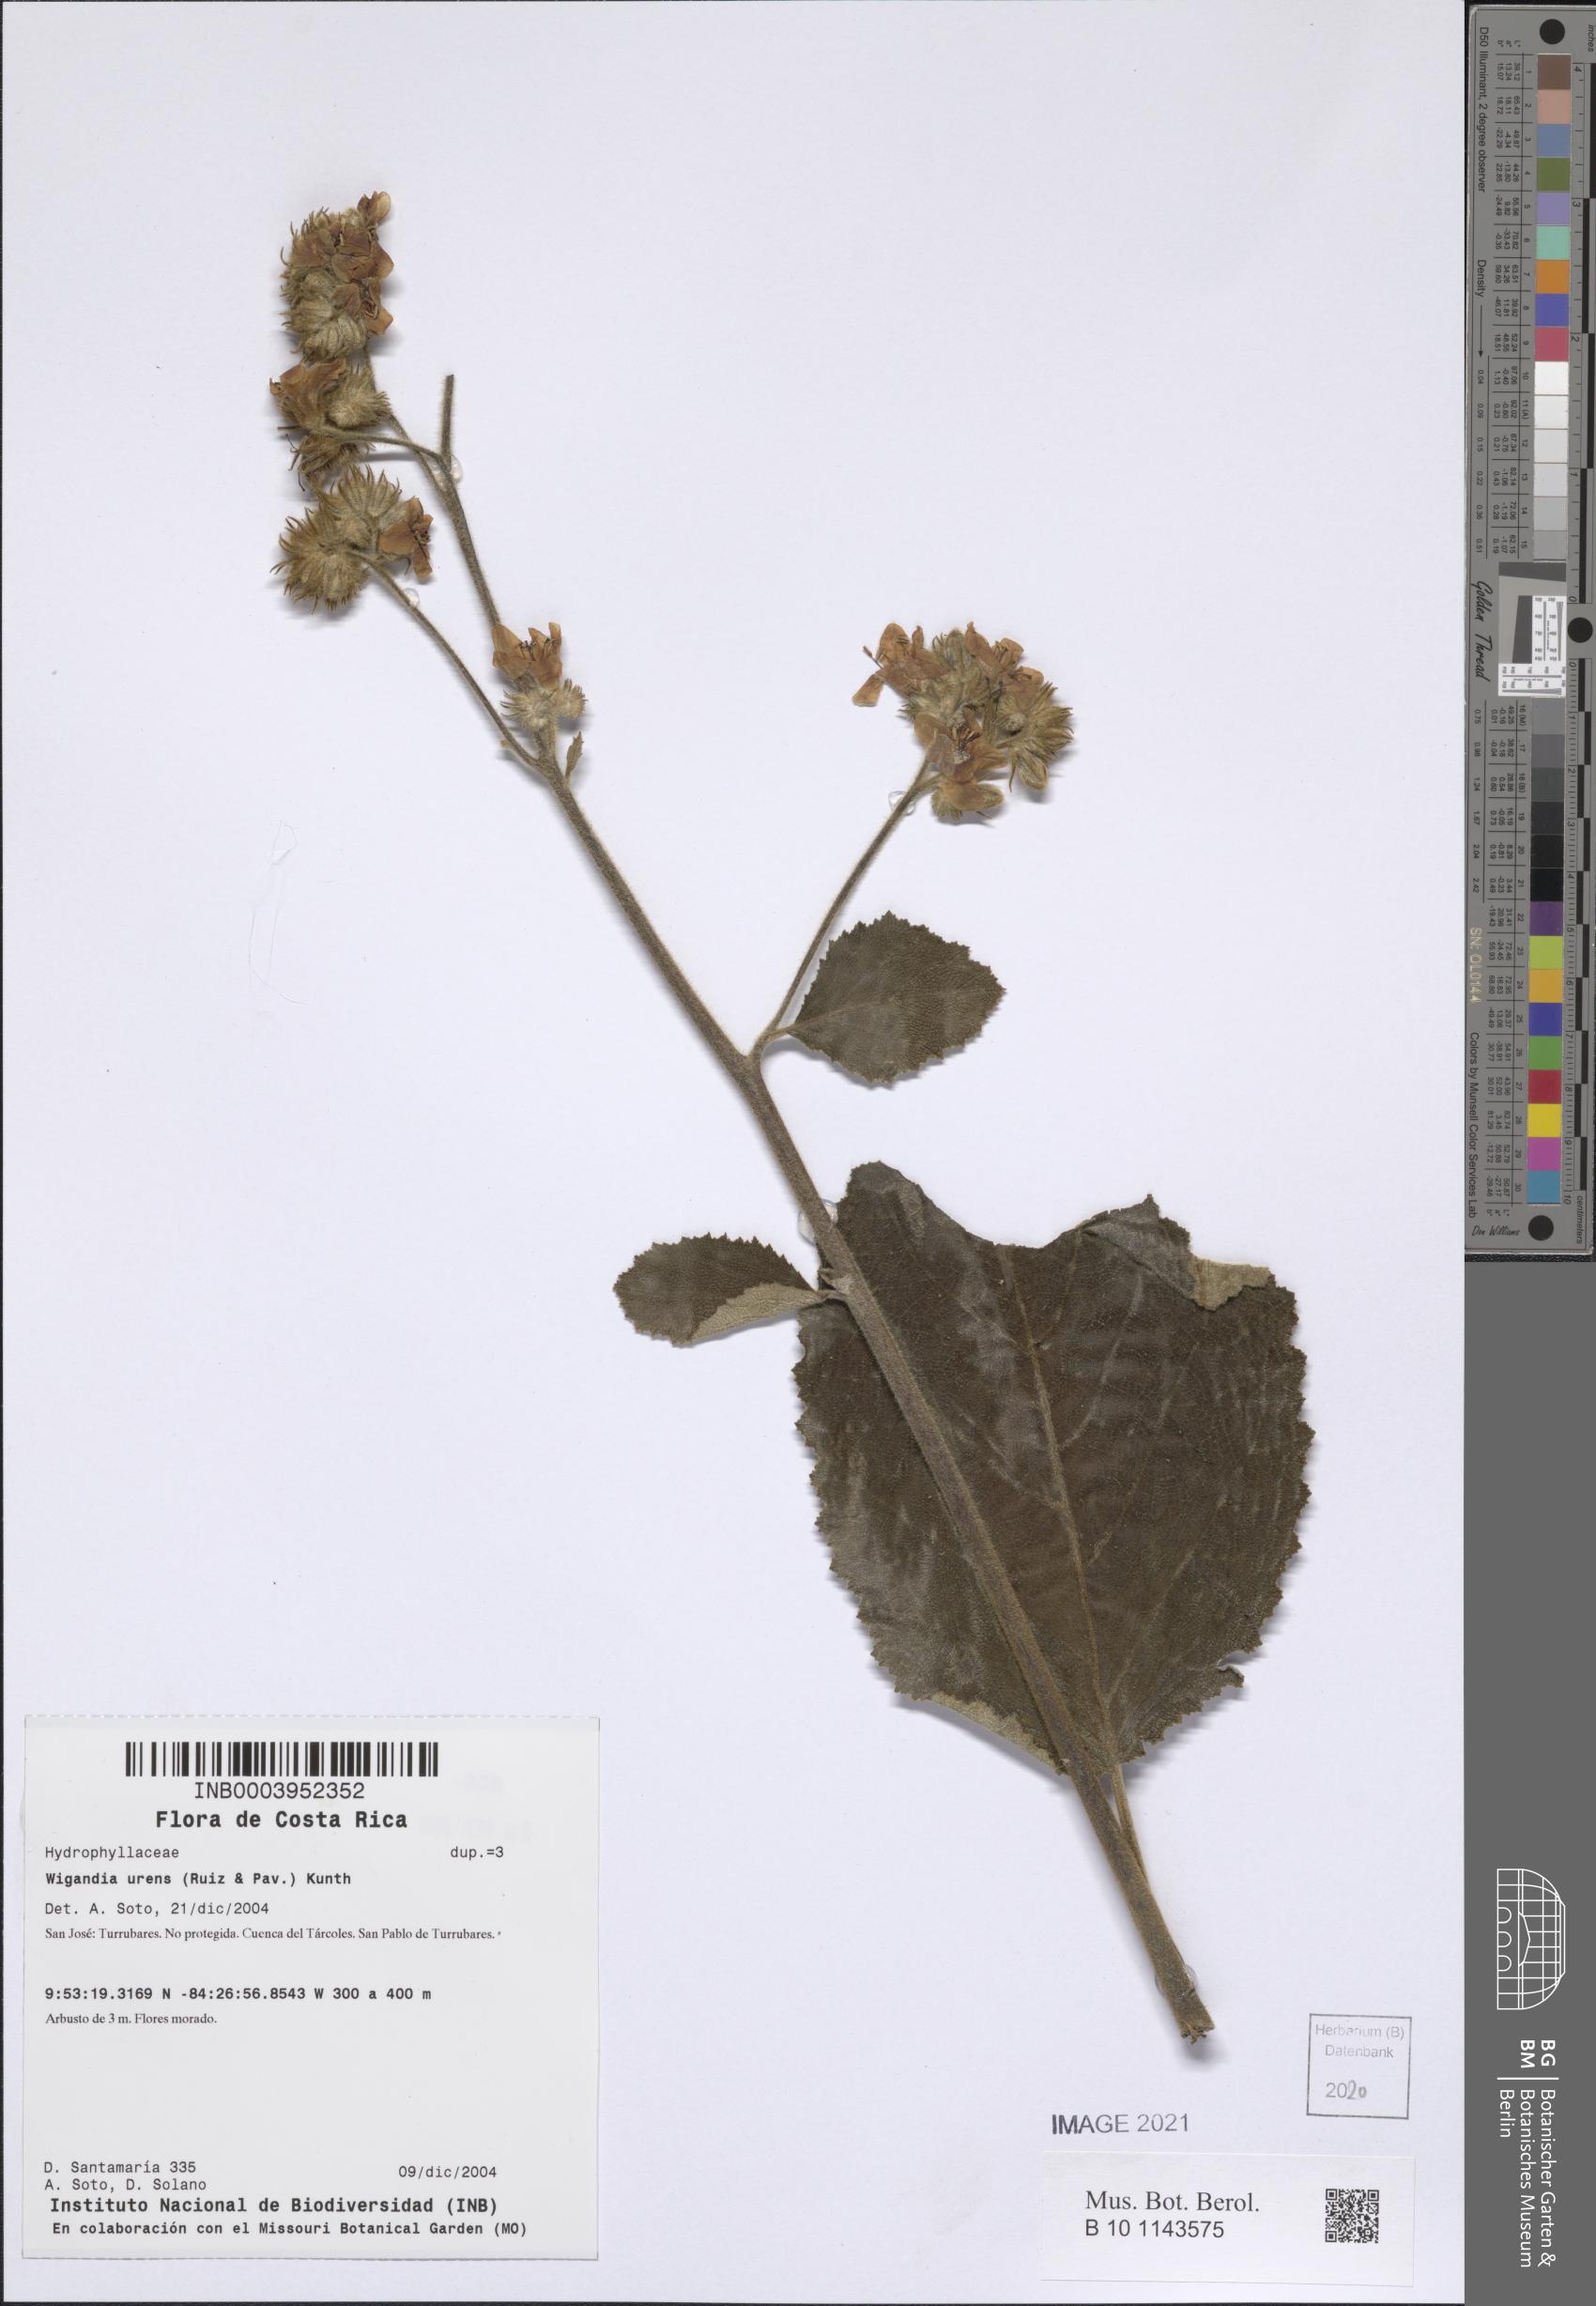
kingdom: Plantae
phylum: Tracheophyta
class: Magnoliopsida
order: Boraginales
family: Namaceae
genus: Wigandia
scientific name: Wigandia urens
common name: Caracus wigandia
